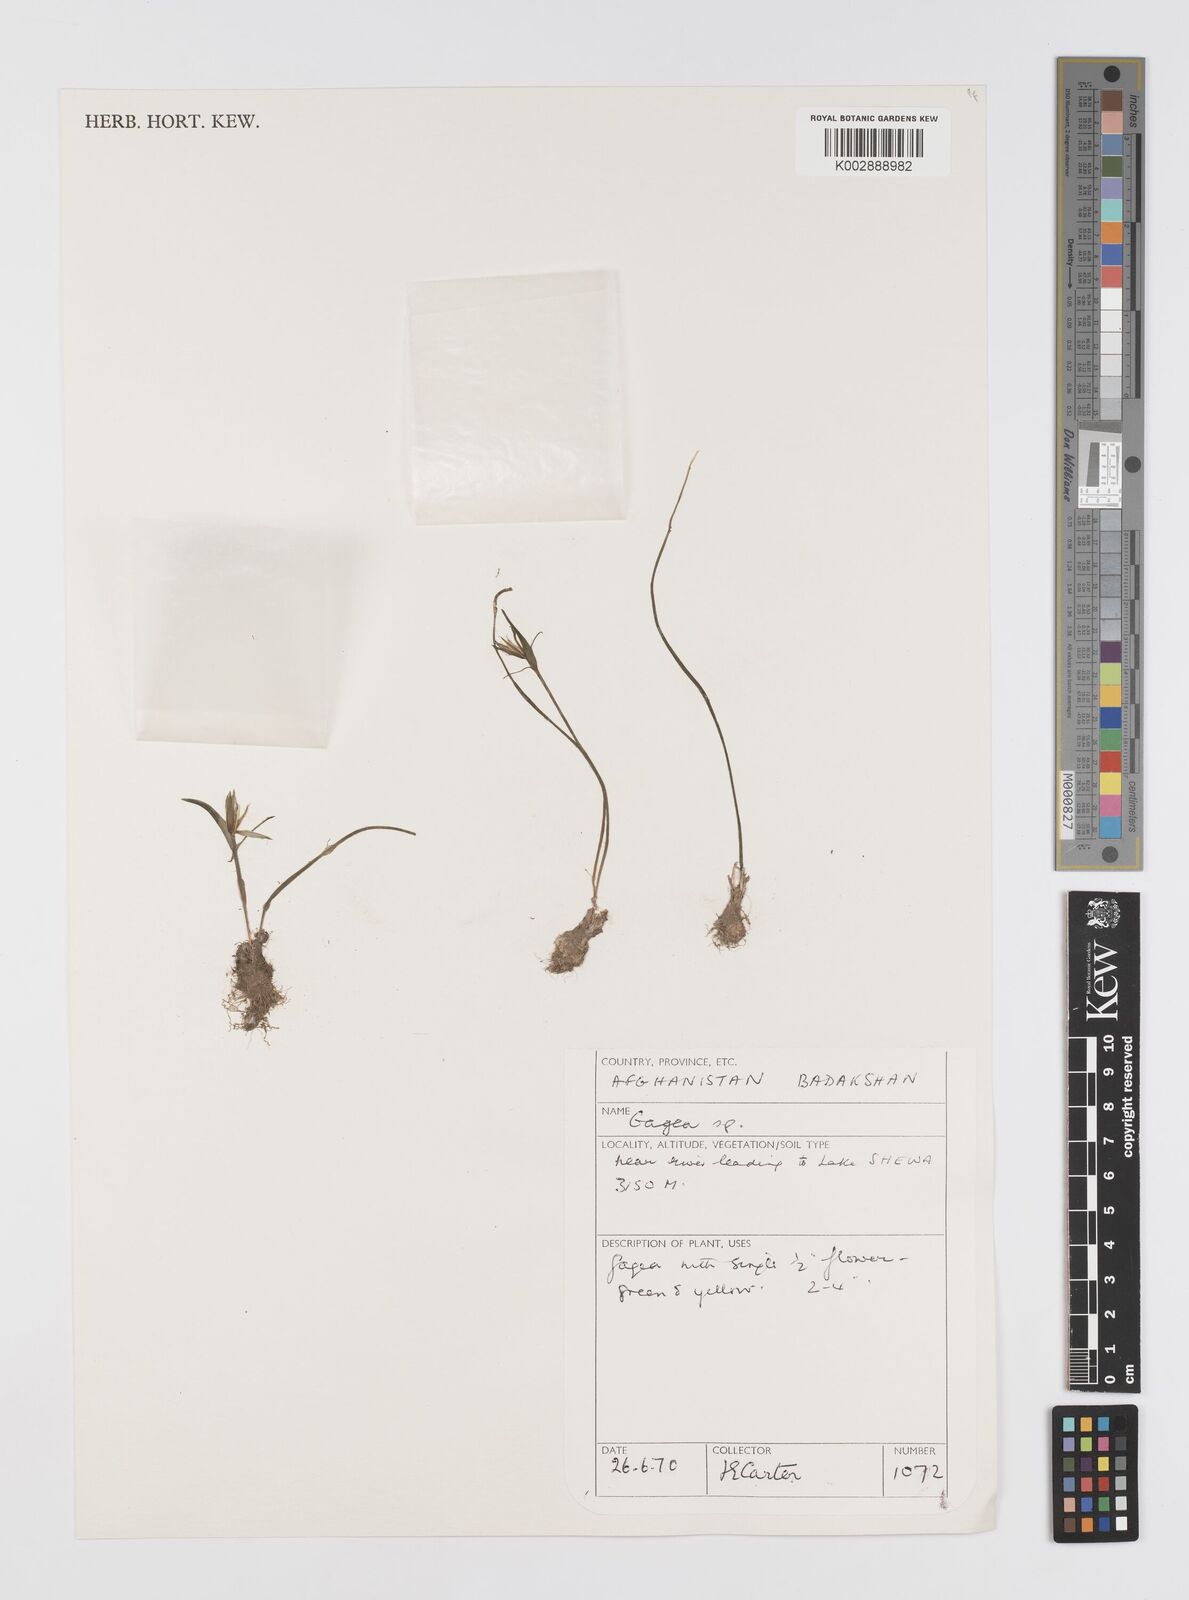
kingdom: Plantae
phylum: Tracheophyta
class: Liliopsida
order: Liliales
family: Liliaceae
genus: Gagea
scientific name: Gagea
